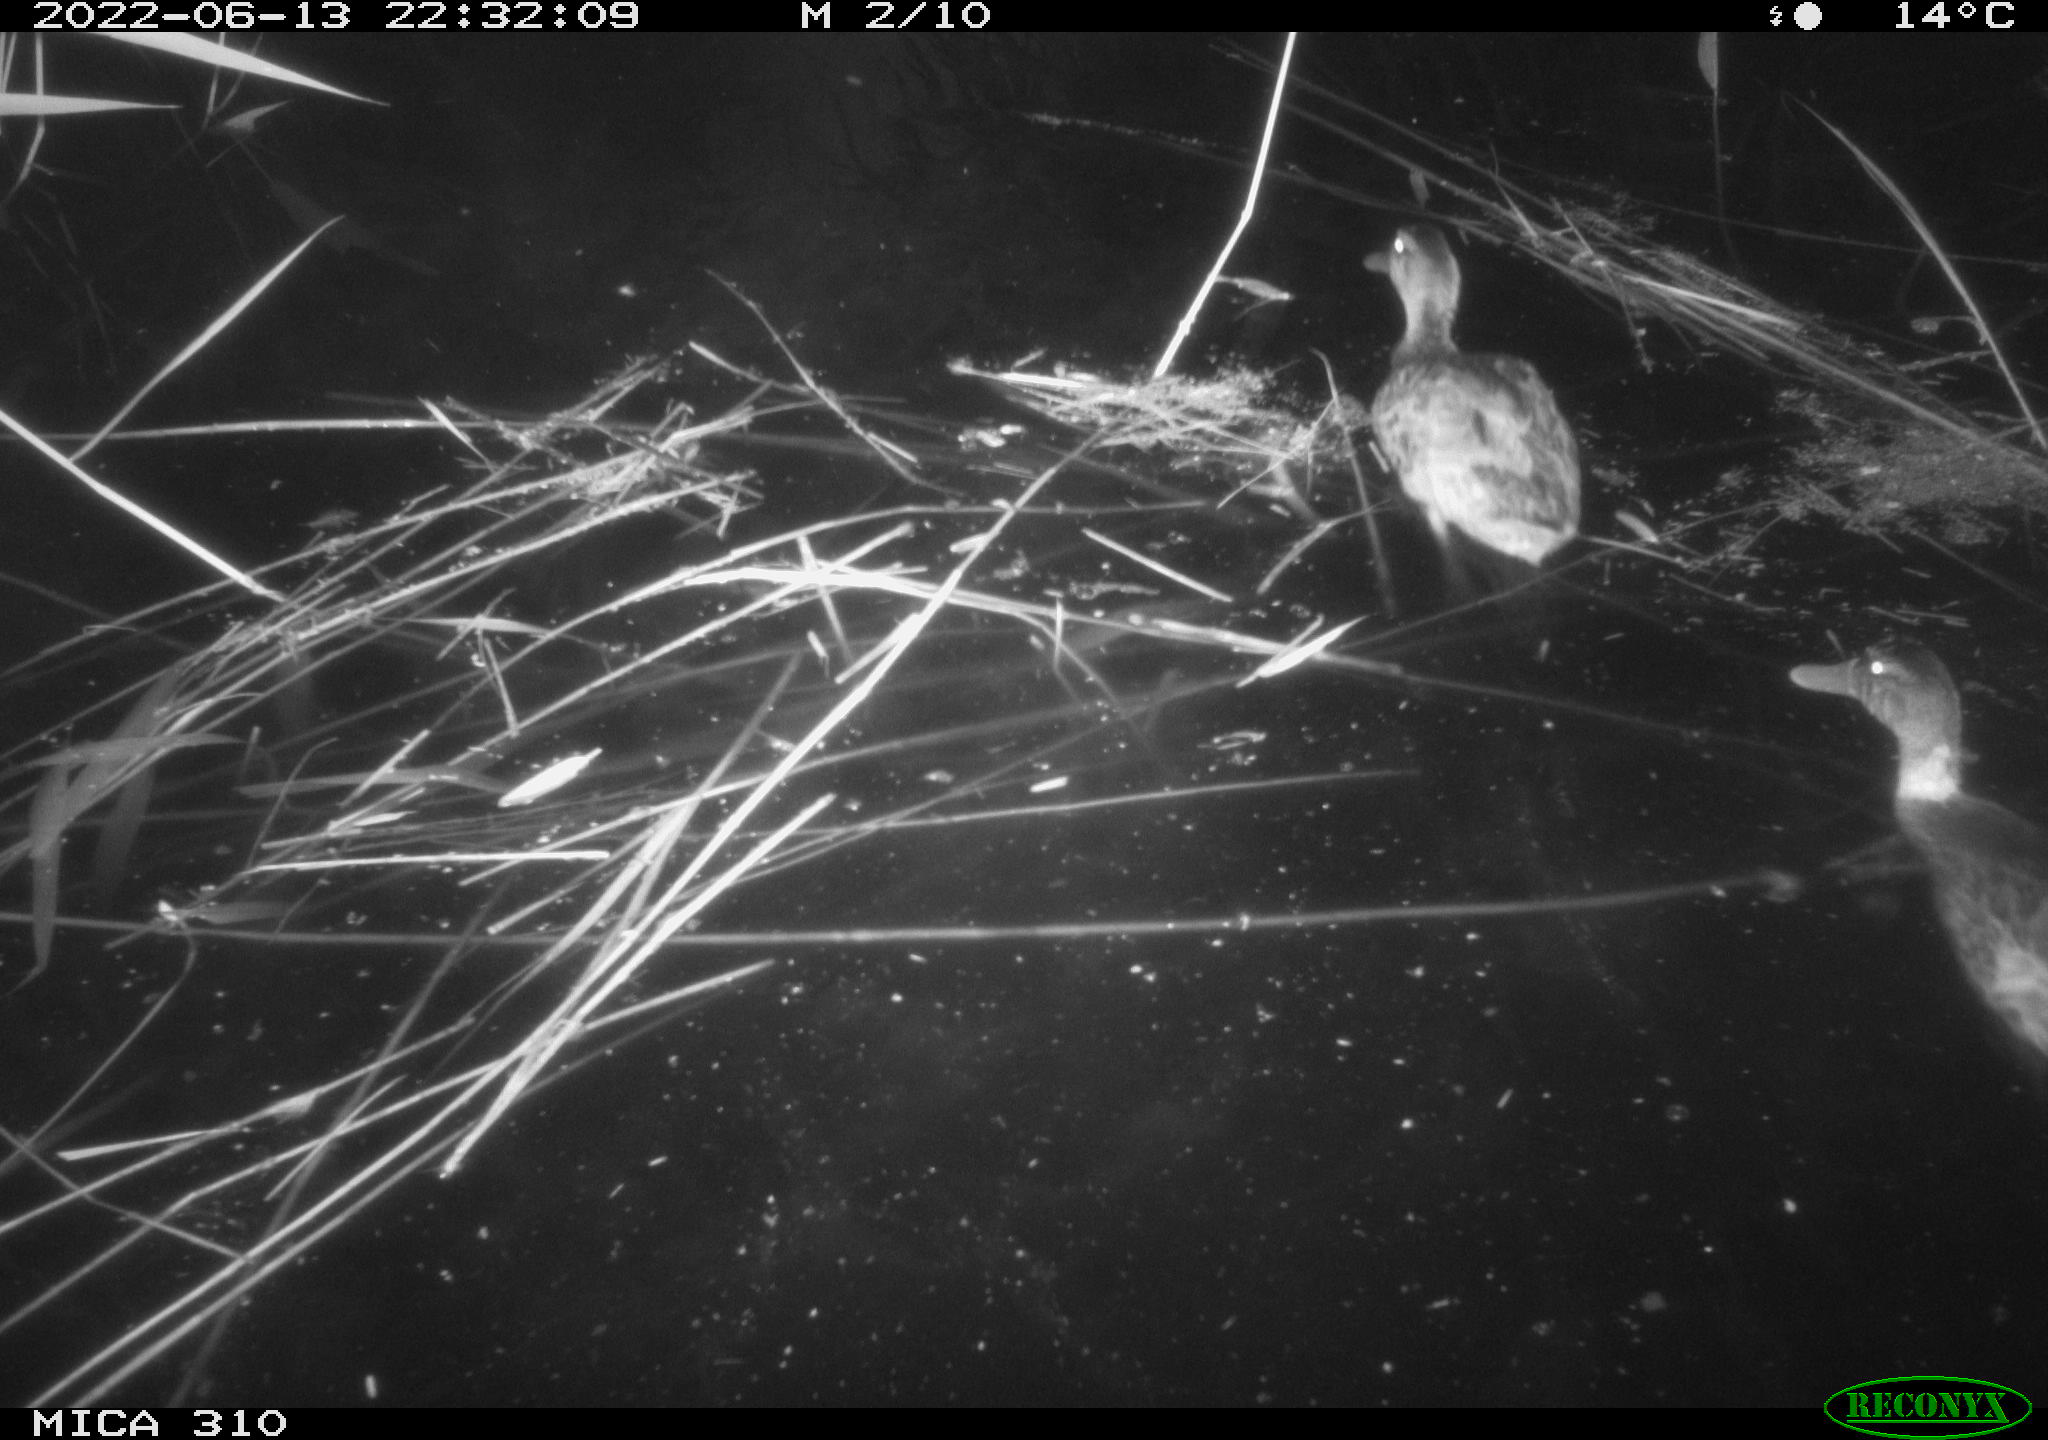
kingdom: Animalia
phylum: Chordata
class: Aves
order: Anseriformes
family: Anatidae
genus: Anas
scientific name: Anas platyrhynchos
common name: Mallard
